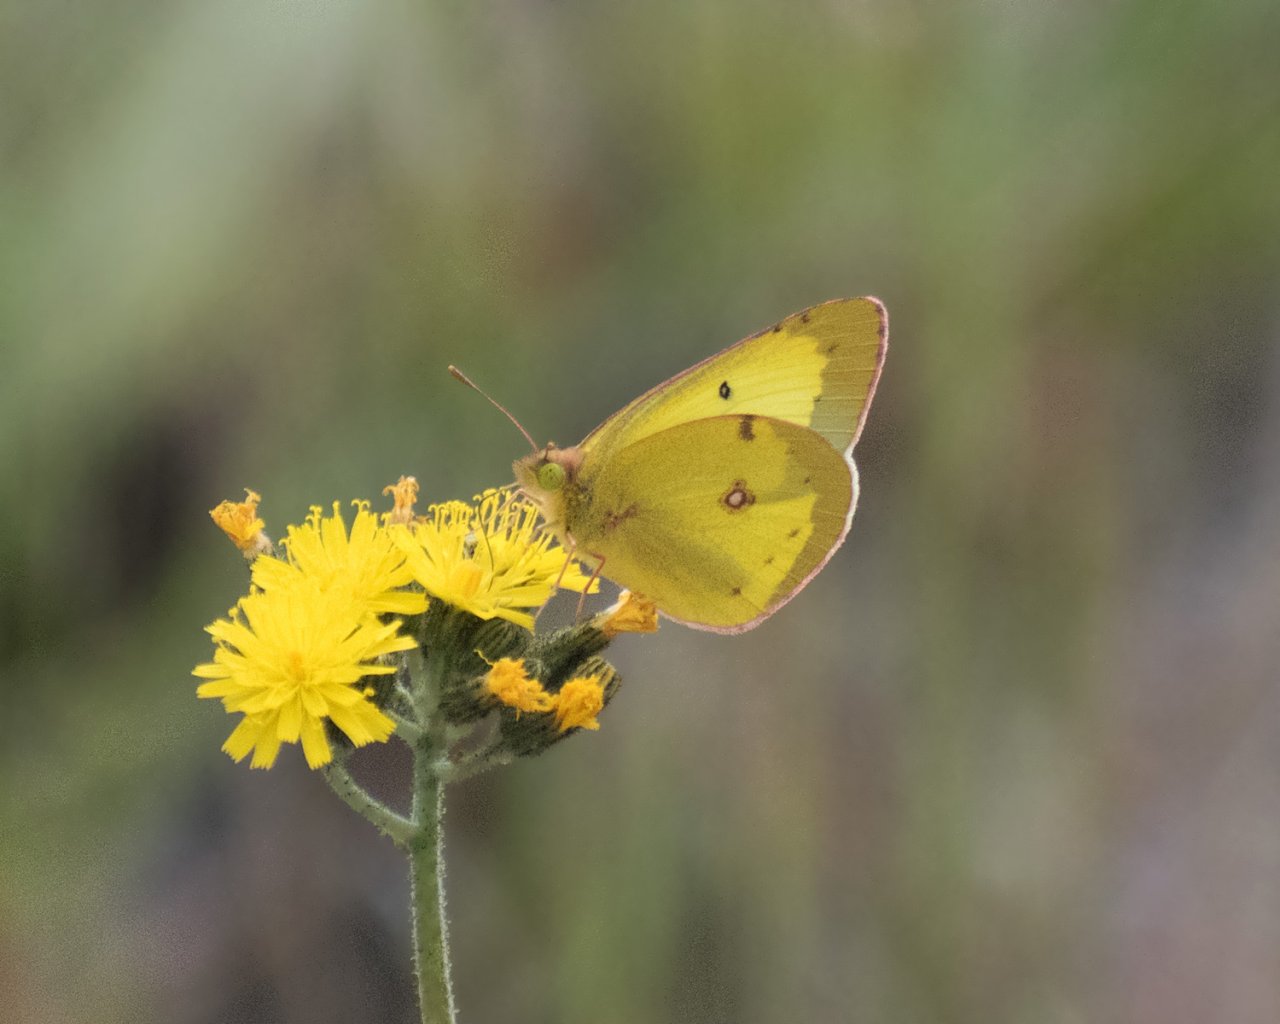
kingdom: Animalia
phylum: Arthropoda
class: Insecta
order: Lepidoptera
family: Pieridae
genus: Colias
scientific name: Colias philodice
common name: Clouded Sulphur
